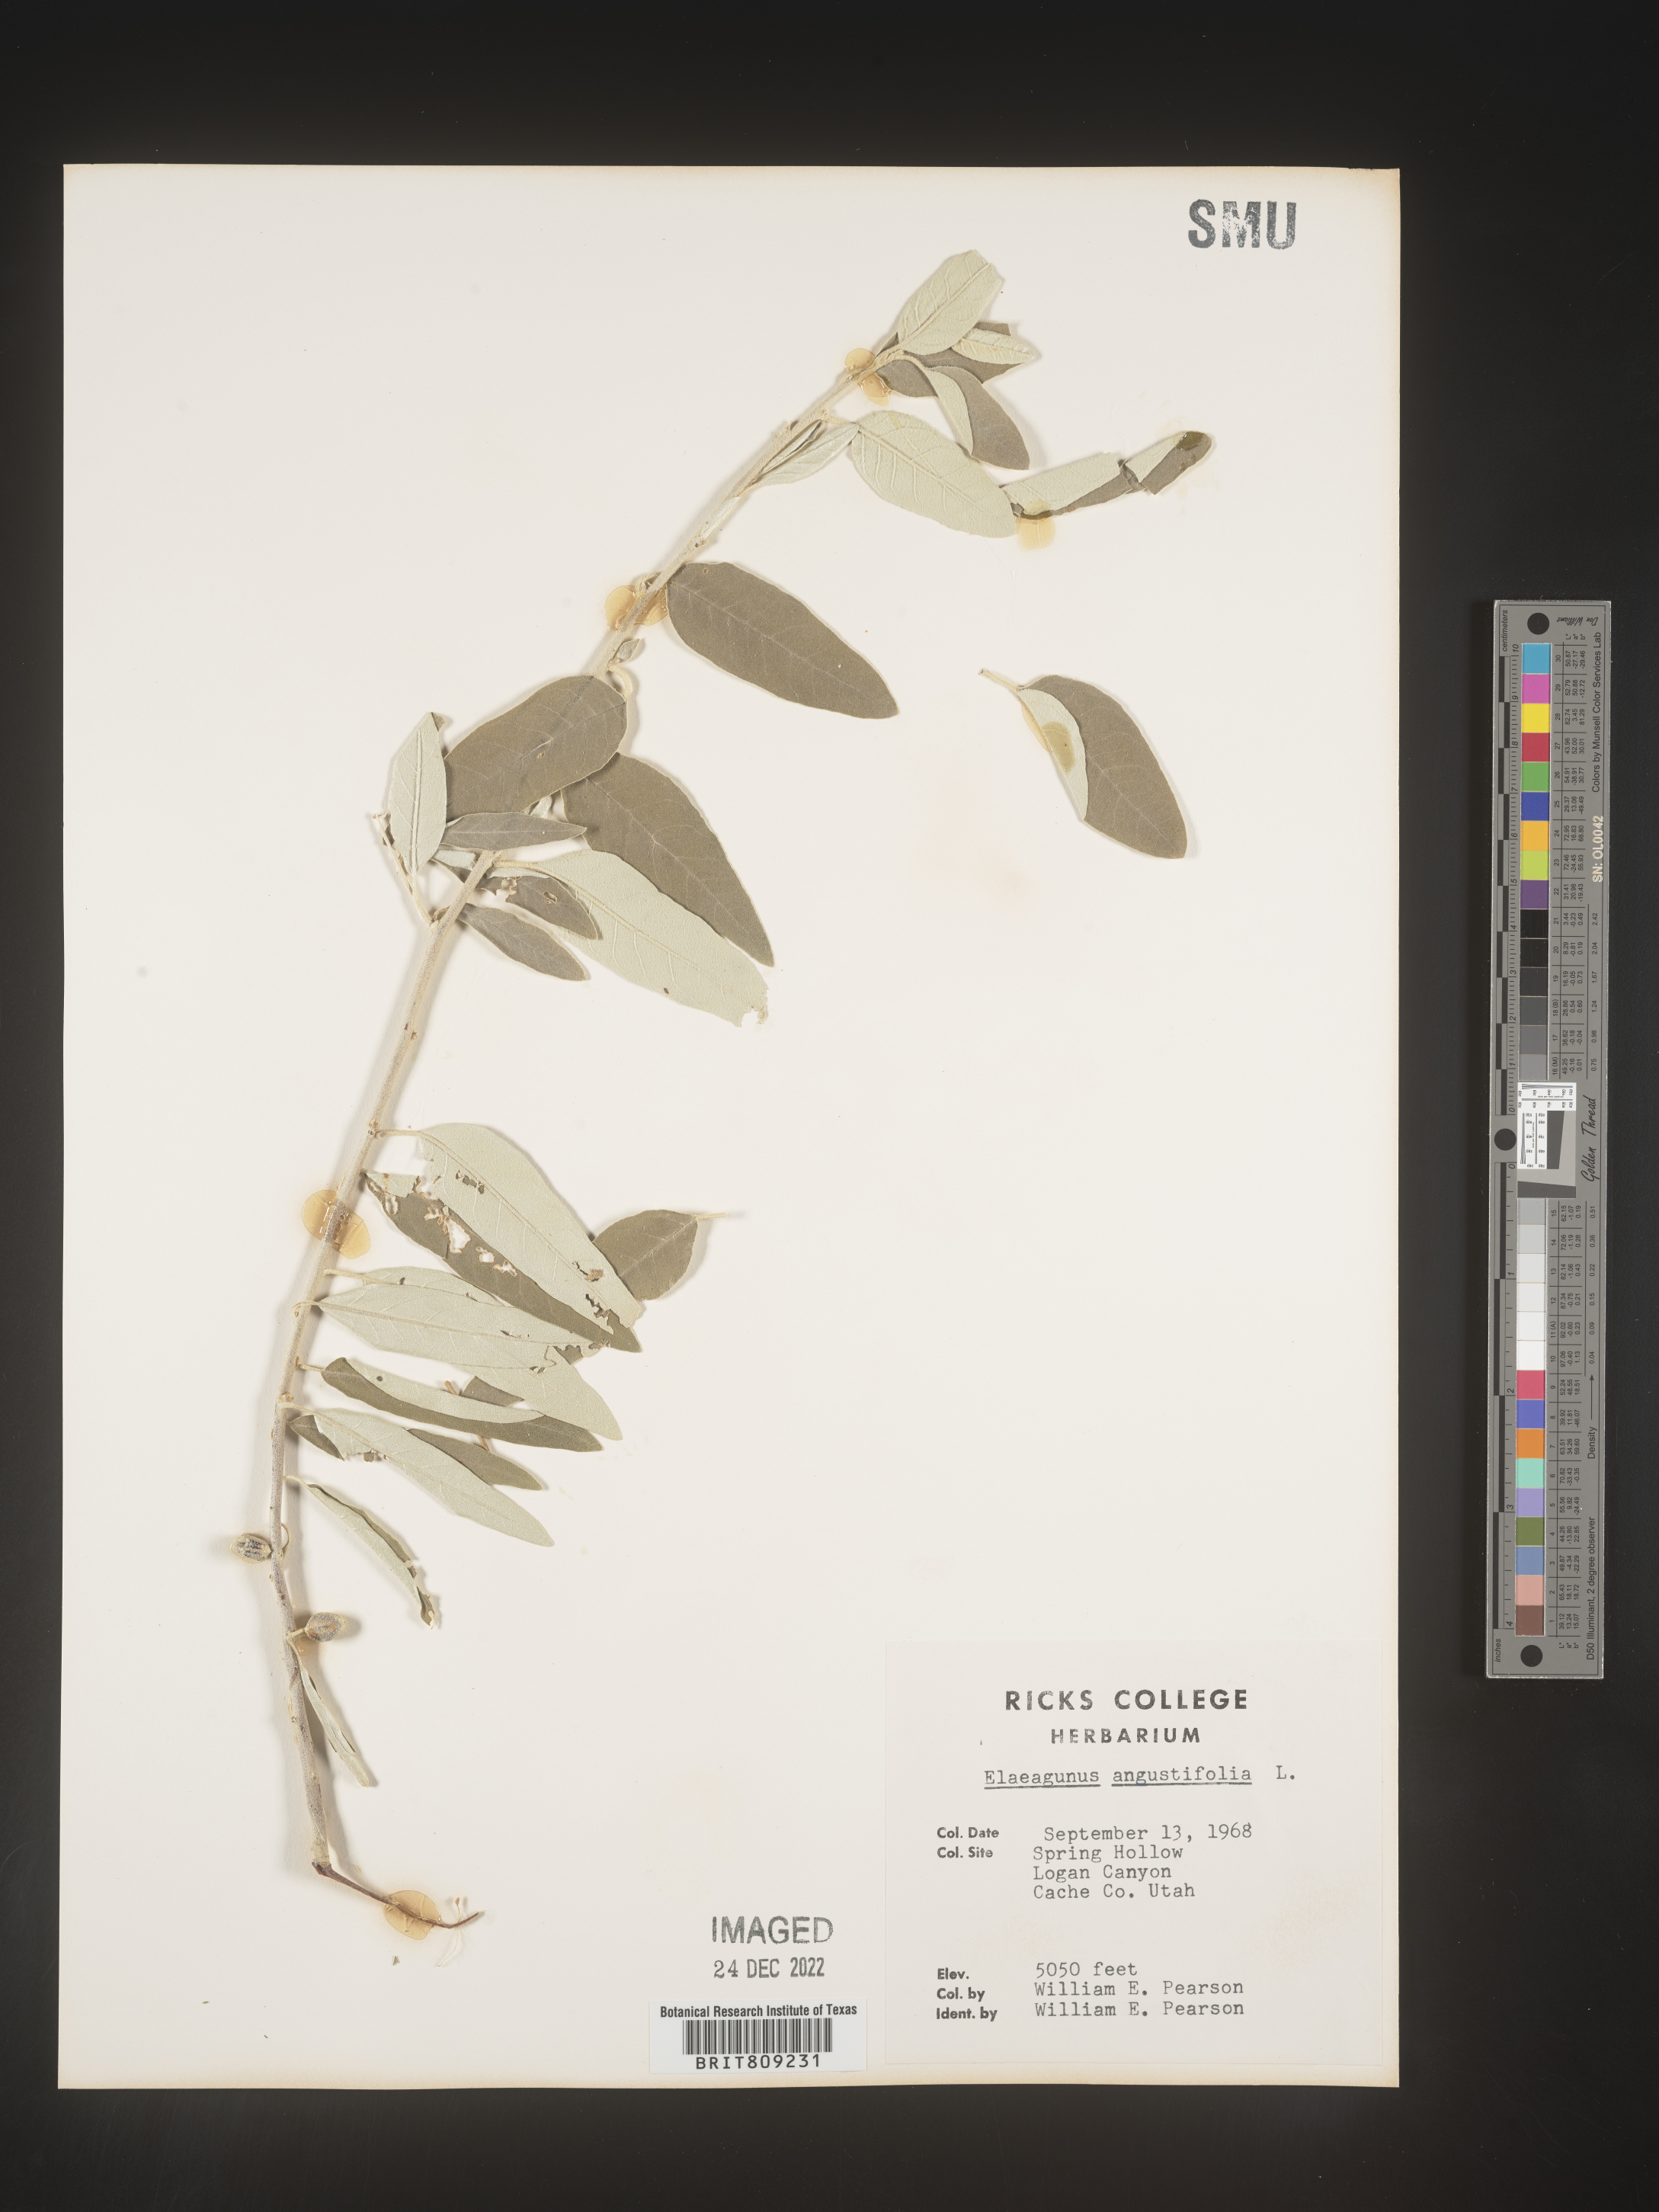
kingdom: Plantae
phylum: Tracheophyta
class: Magnoliopsida
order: Rosales
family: Elaeagnaceae
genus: Elaeagnus
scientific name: Elaeagnus angustifolia
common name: Russian olive
